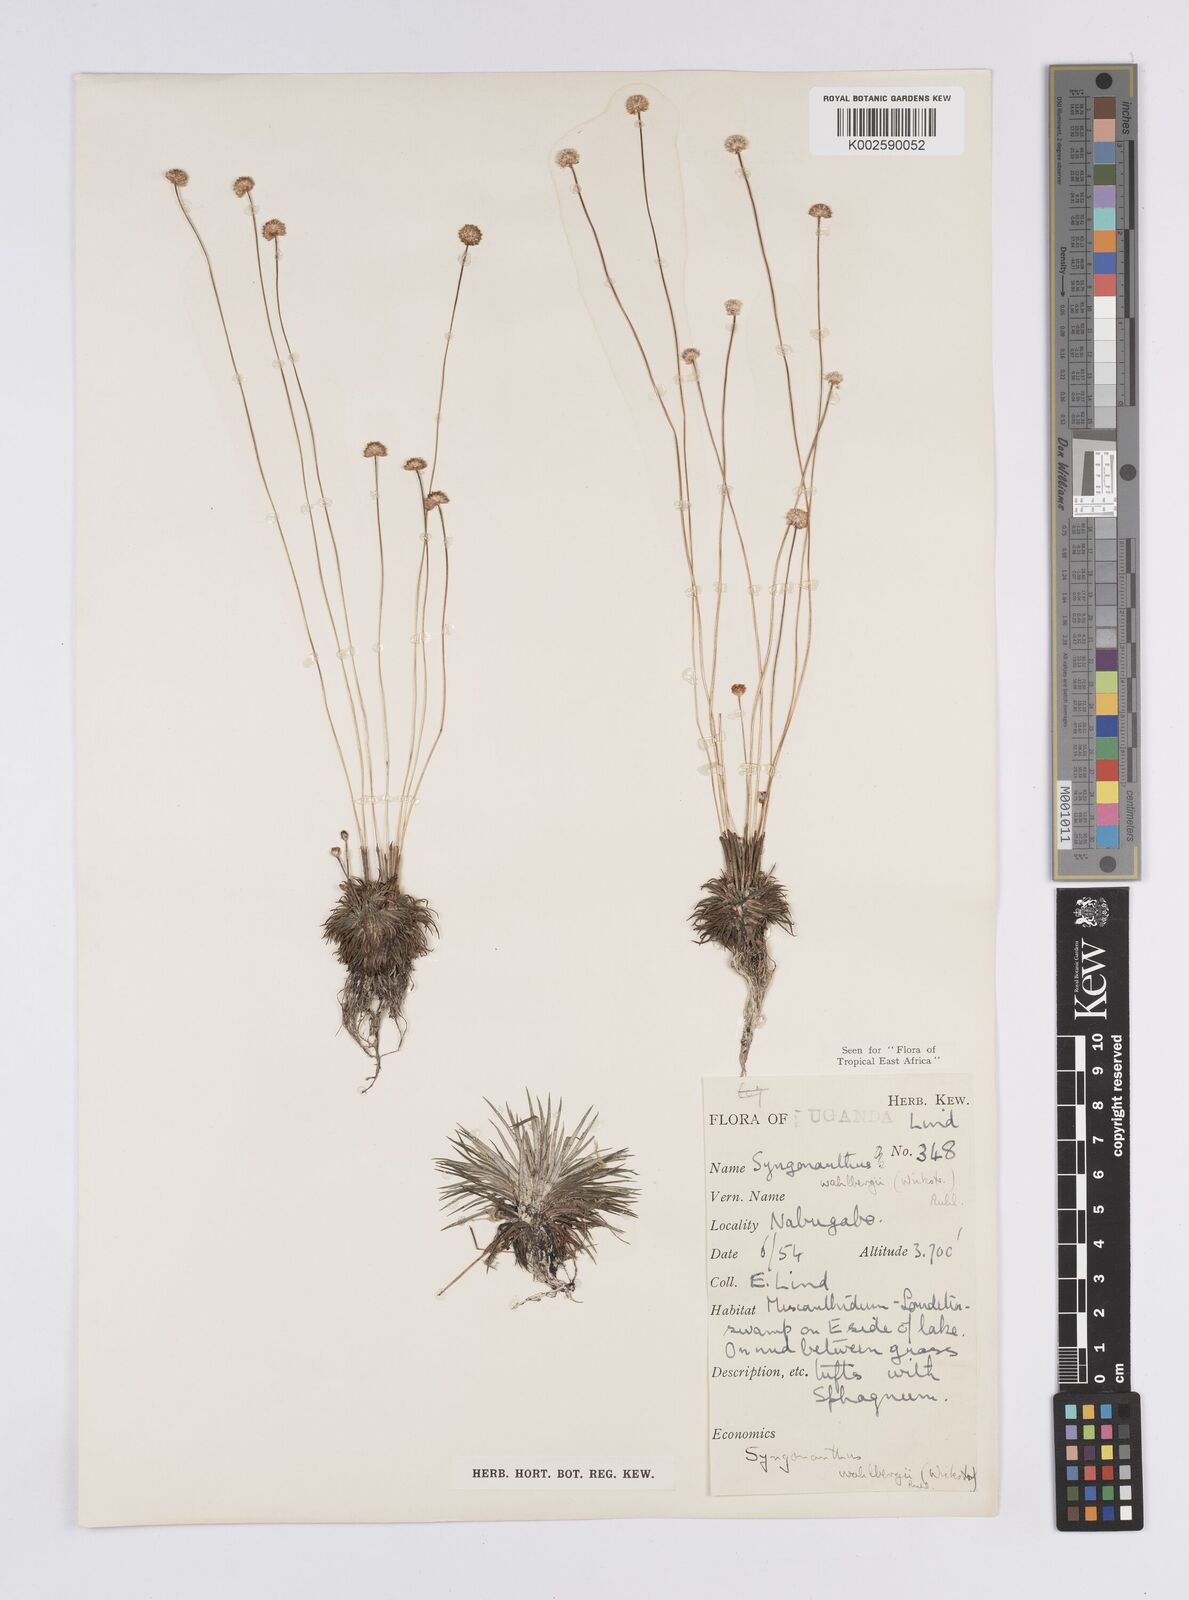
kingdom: Plantae
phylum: Tracheophyta
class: Liliopsida
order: Poales
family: Eriocaulaceae
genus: Syngonanthus
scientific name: Syngonanthus wahlbergii
